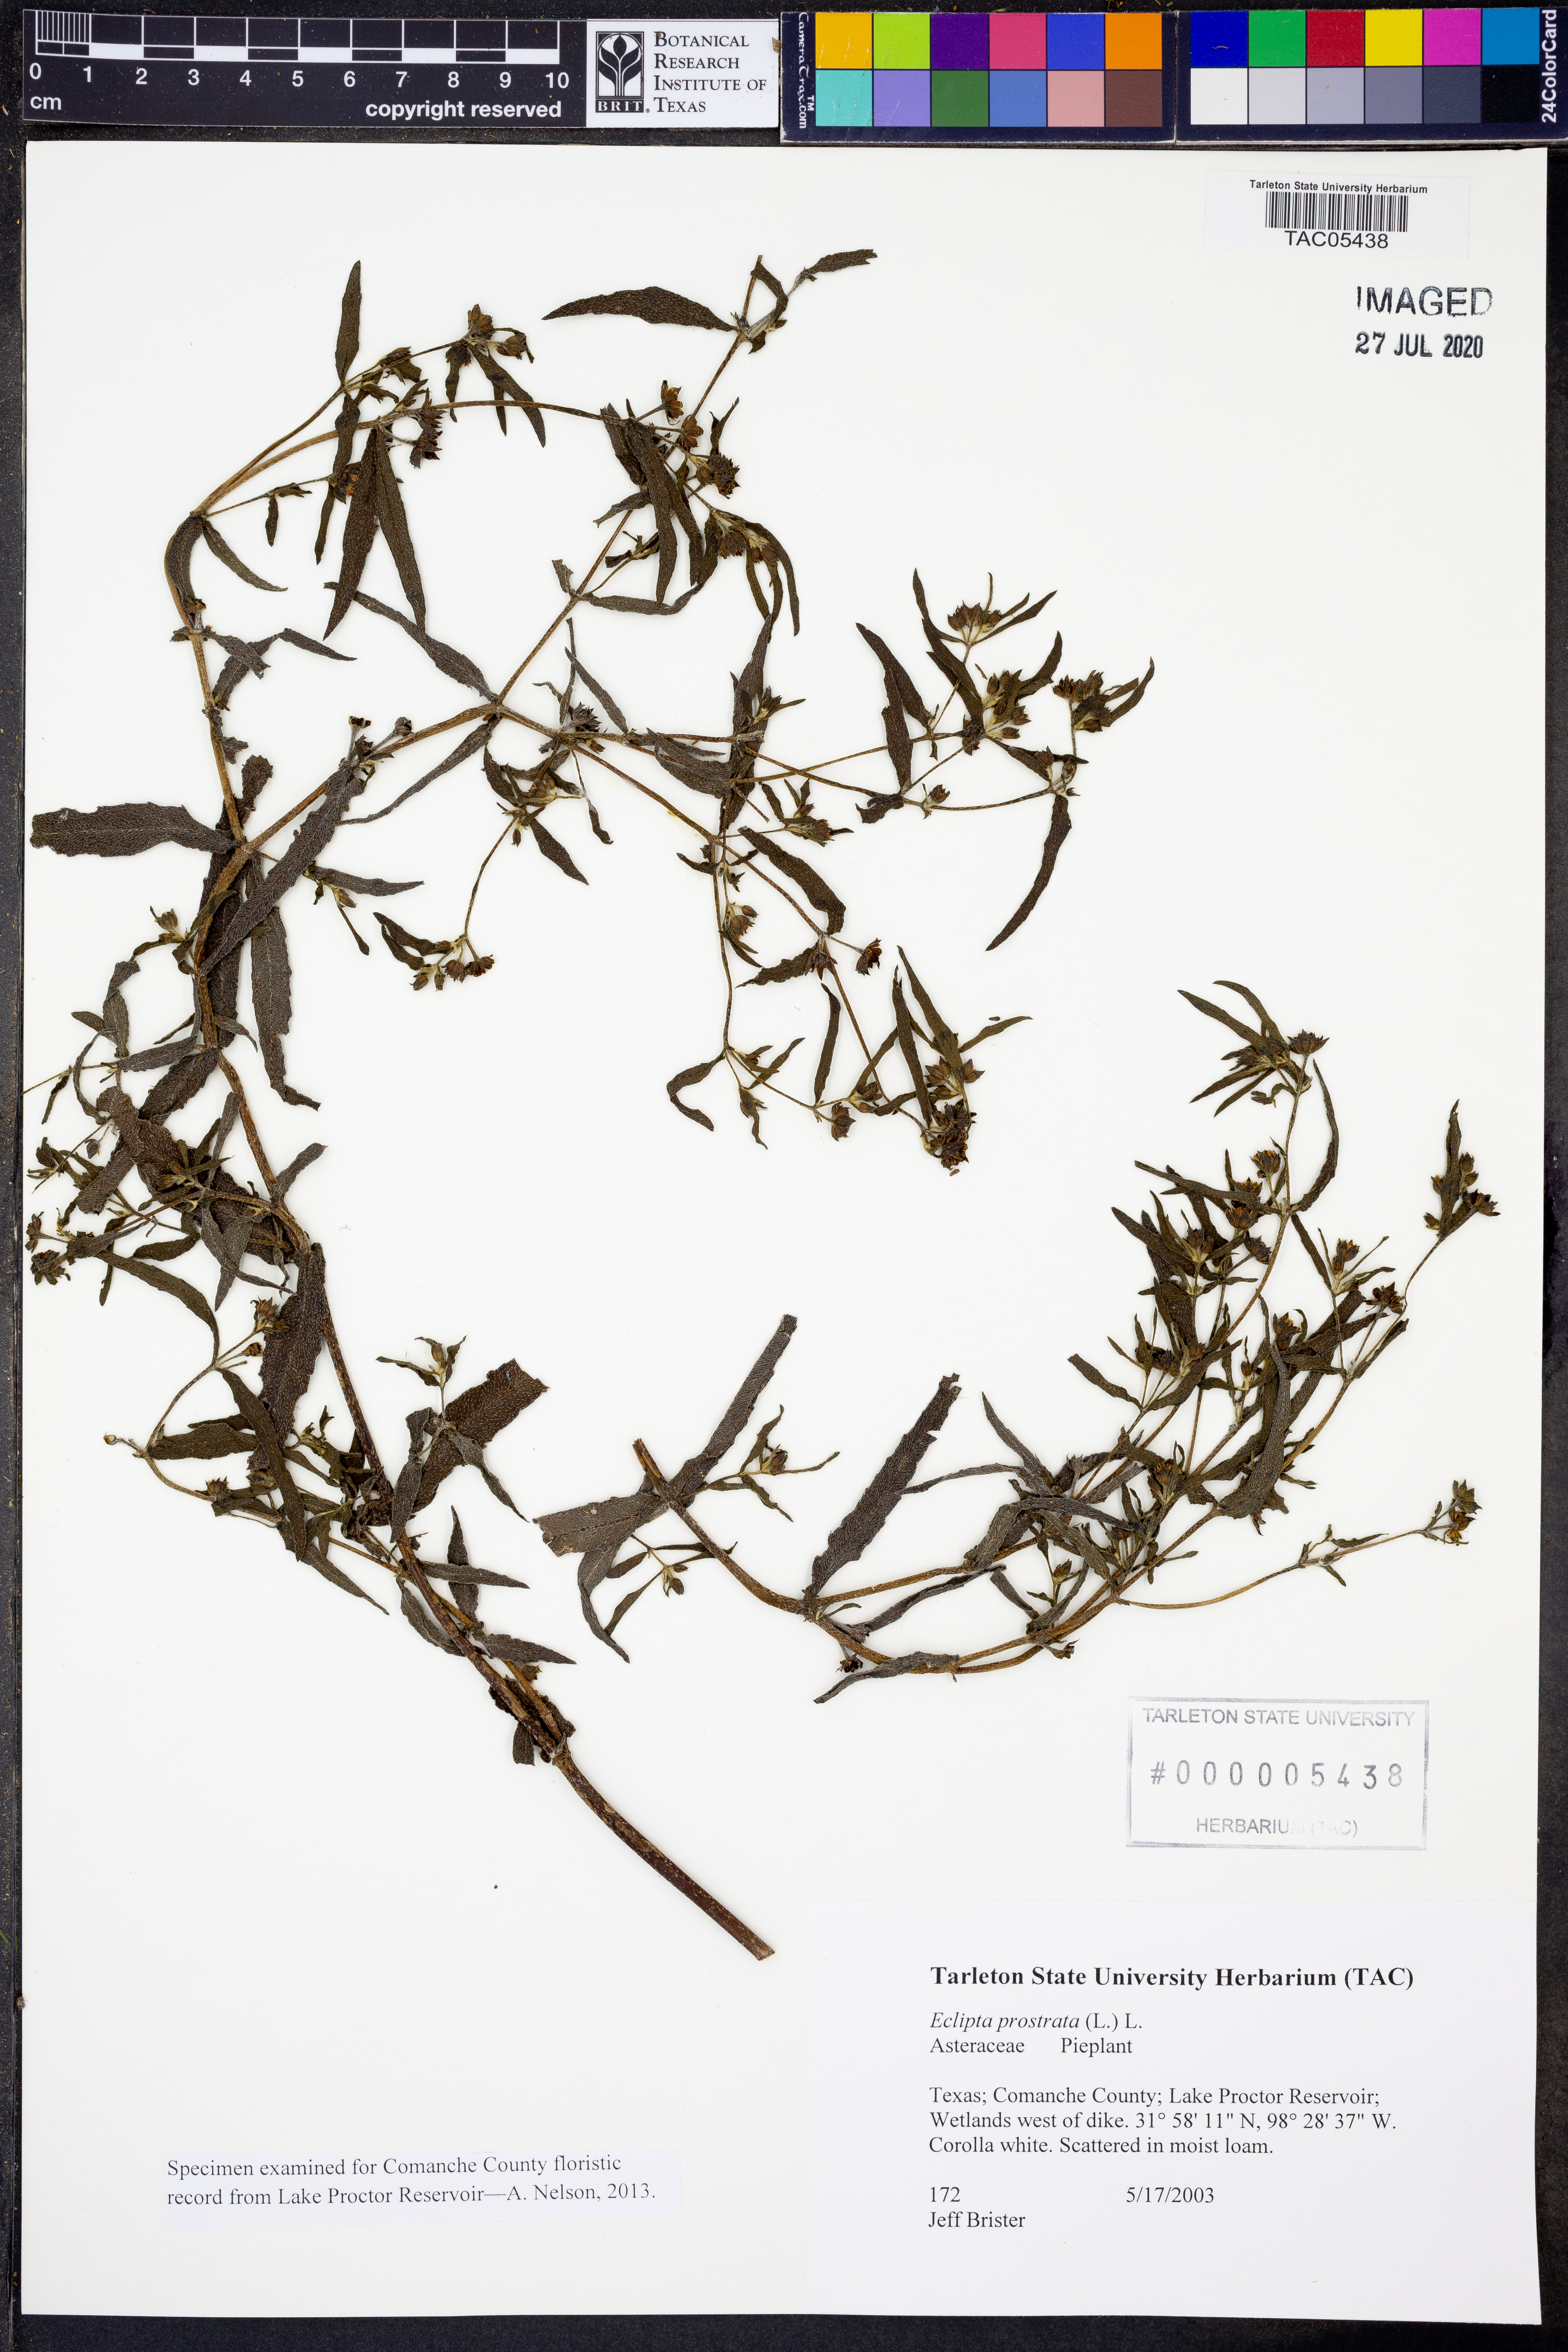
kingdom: Plantae
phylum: Tracheophyta
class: Magnoliopsida
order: Asterales
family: Asteraceae
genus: Eclipta
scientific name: Eclipta prostrata
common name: False daisy
